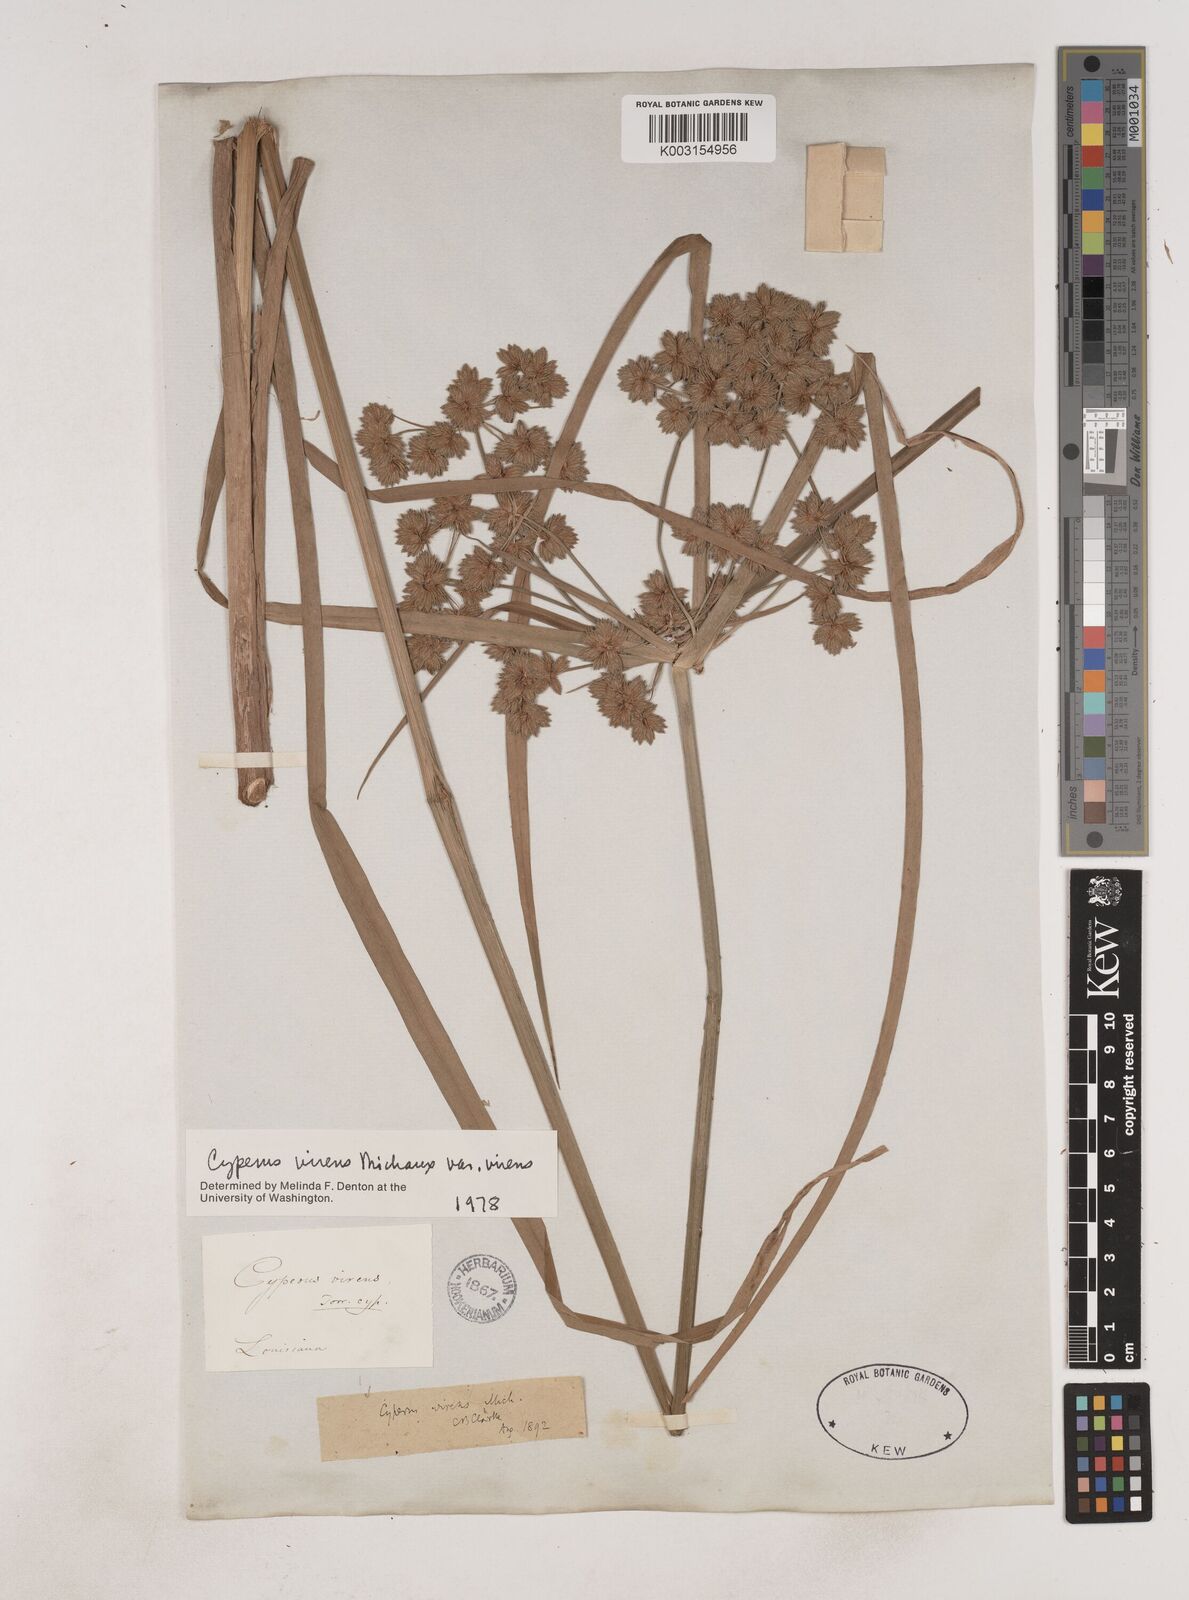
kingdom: Plantae
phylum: Tracheophyta
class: Liliopsida
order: Poales
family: Cyperaceae
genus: Cyperus
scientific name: Cyperus virens
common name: Green flatsedge
